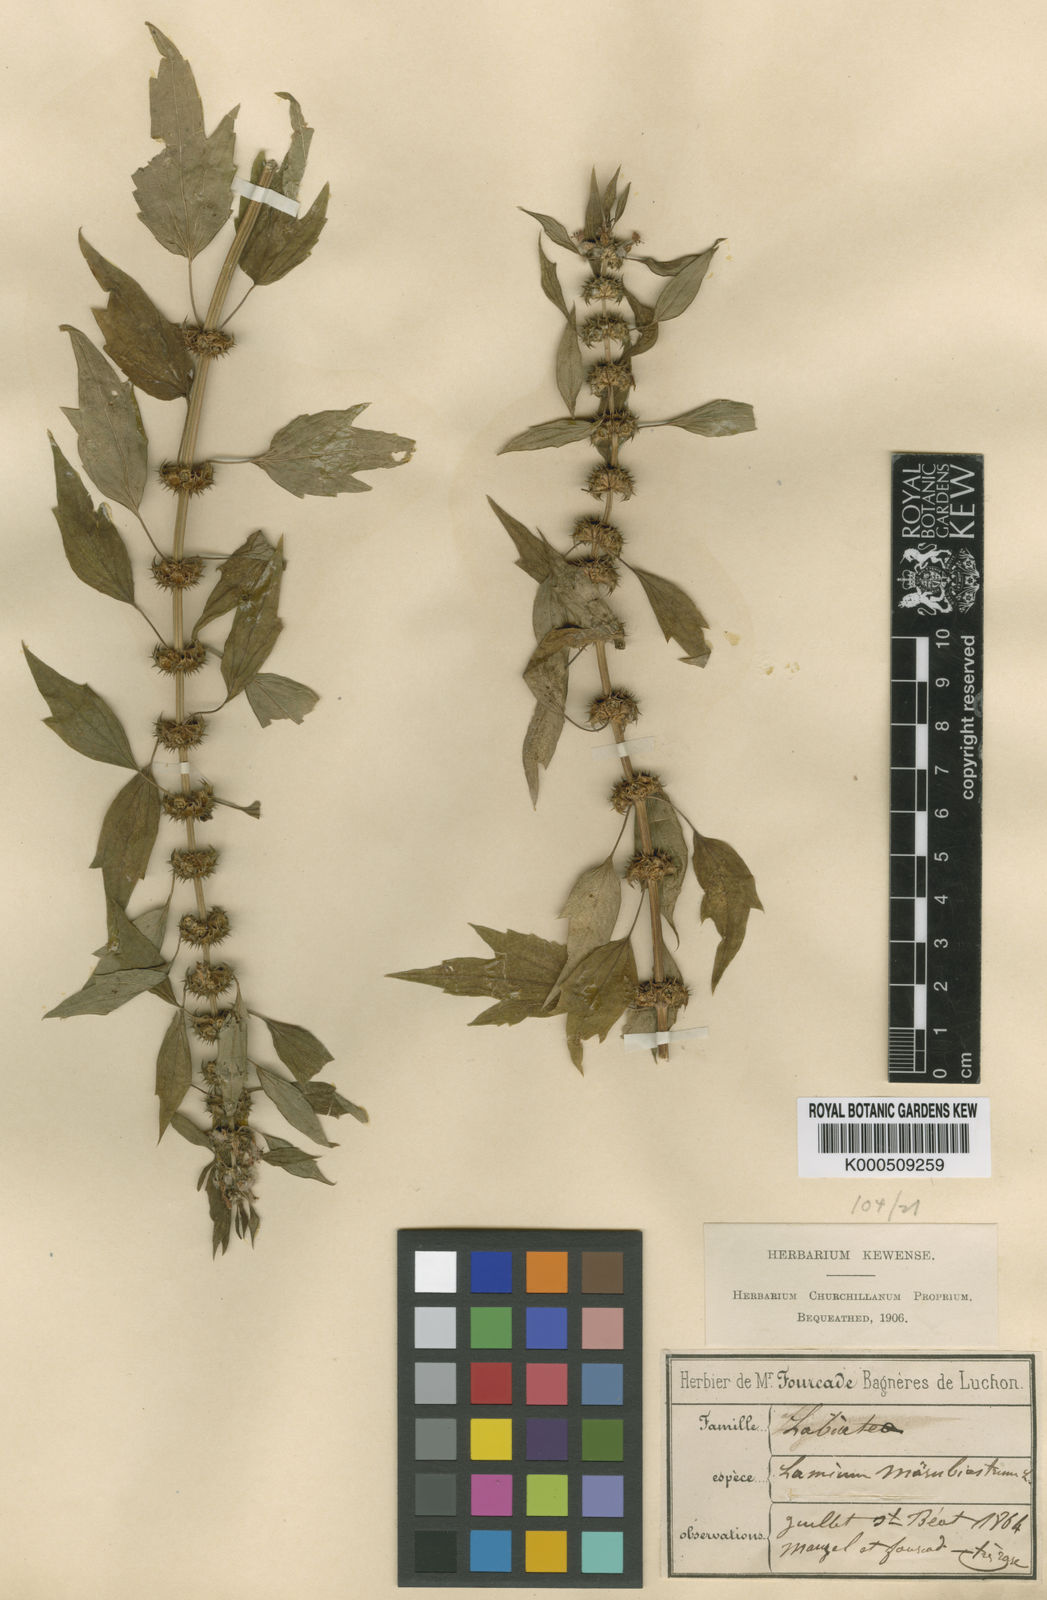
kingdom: Plantae
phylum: Tracheophyta
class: Magnoliopsida
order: Lamiales
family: Lamiaceae
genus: Chaiturus
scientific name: Chaiturus
